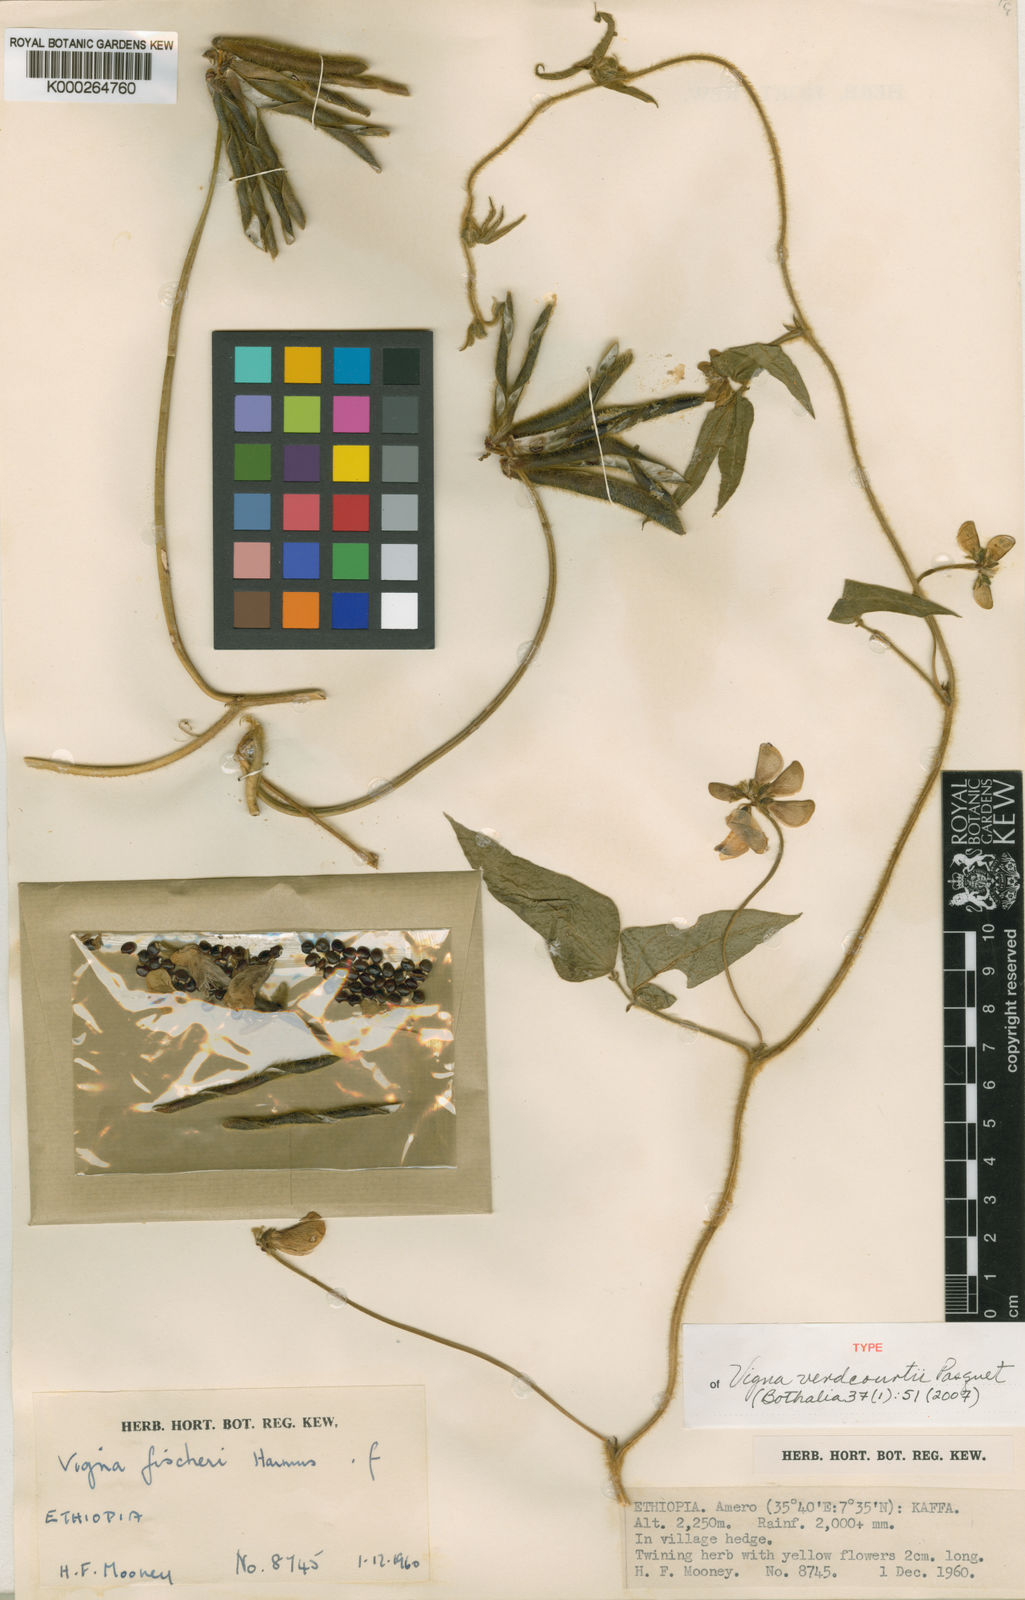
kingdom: Plantae
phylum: Tracheophyta
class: Magnoliopsida
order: Fabales
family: Fabaceae
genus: Vigna
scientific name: Vigna verdcourtii
